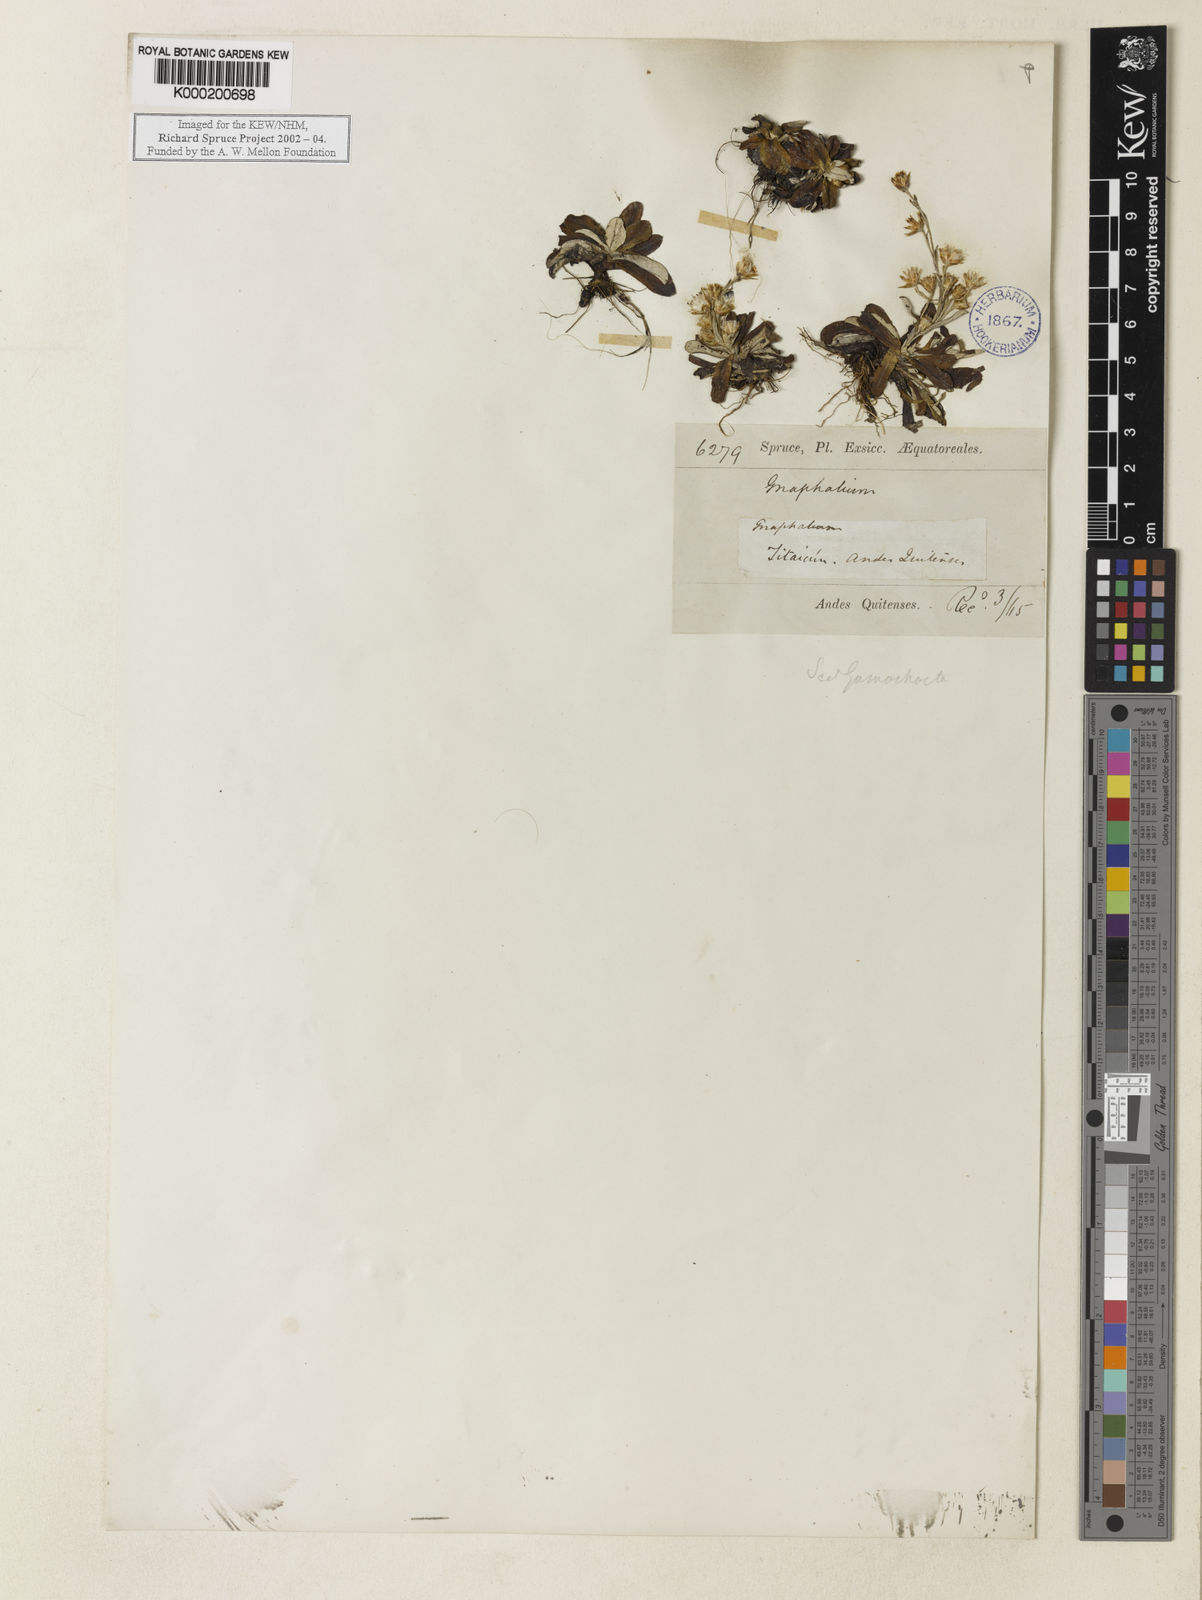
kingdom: Plantae
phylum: Tracheophyta
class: Magnoliopsida
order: Asterales
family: Asteraceae
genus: Gnaphalium
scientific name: Gnaphalium
